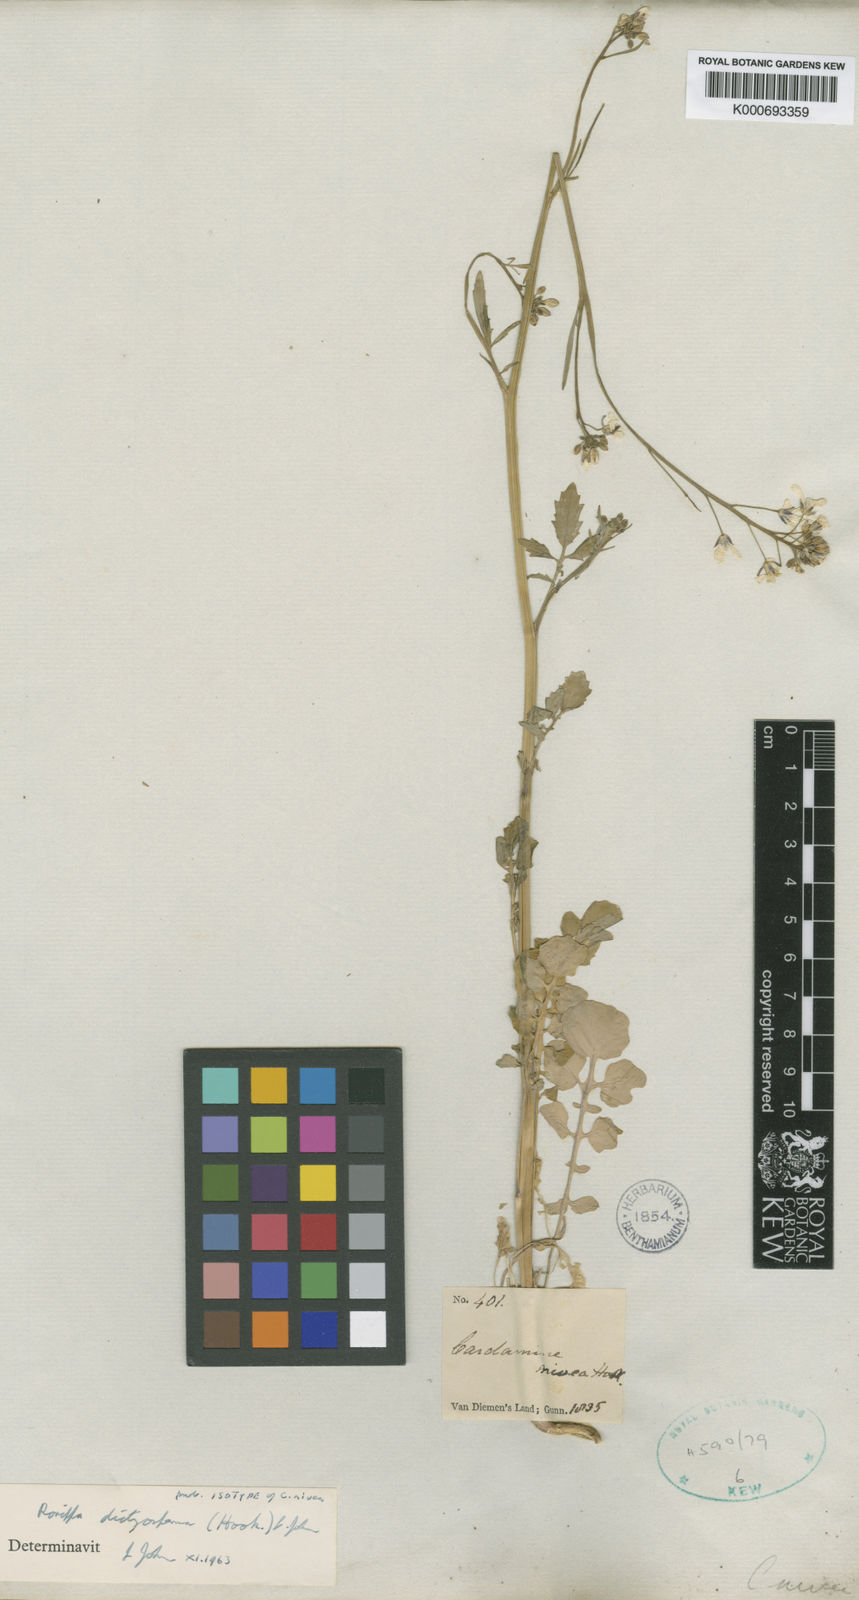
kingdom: Plantae
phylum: Tracheophyta
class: Magnoliopsida
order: Brassicales
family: Brassicaceae
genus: Rorippa
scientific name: Rorippa dictyosperma
